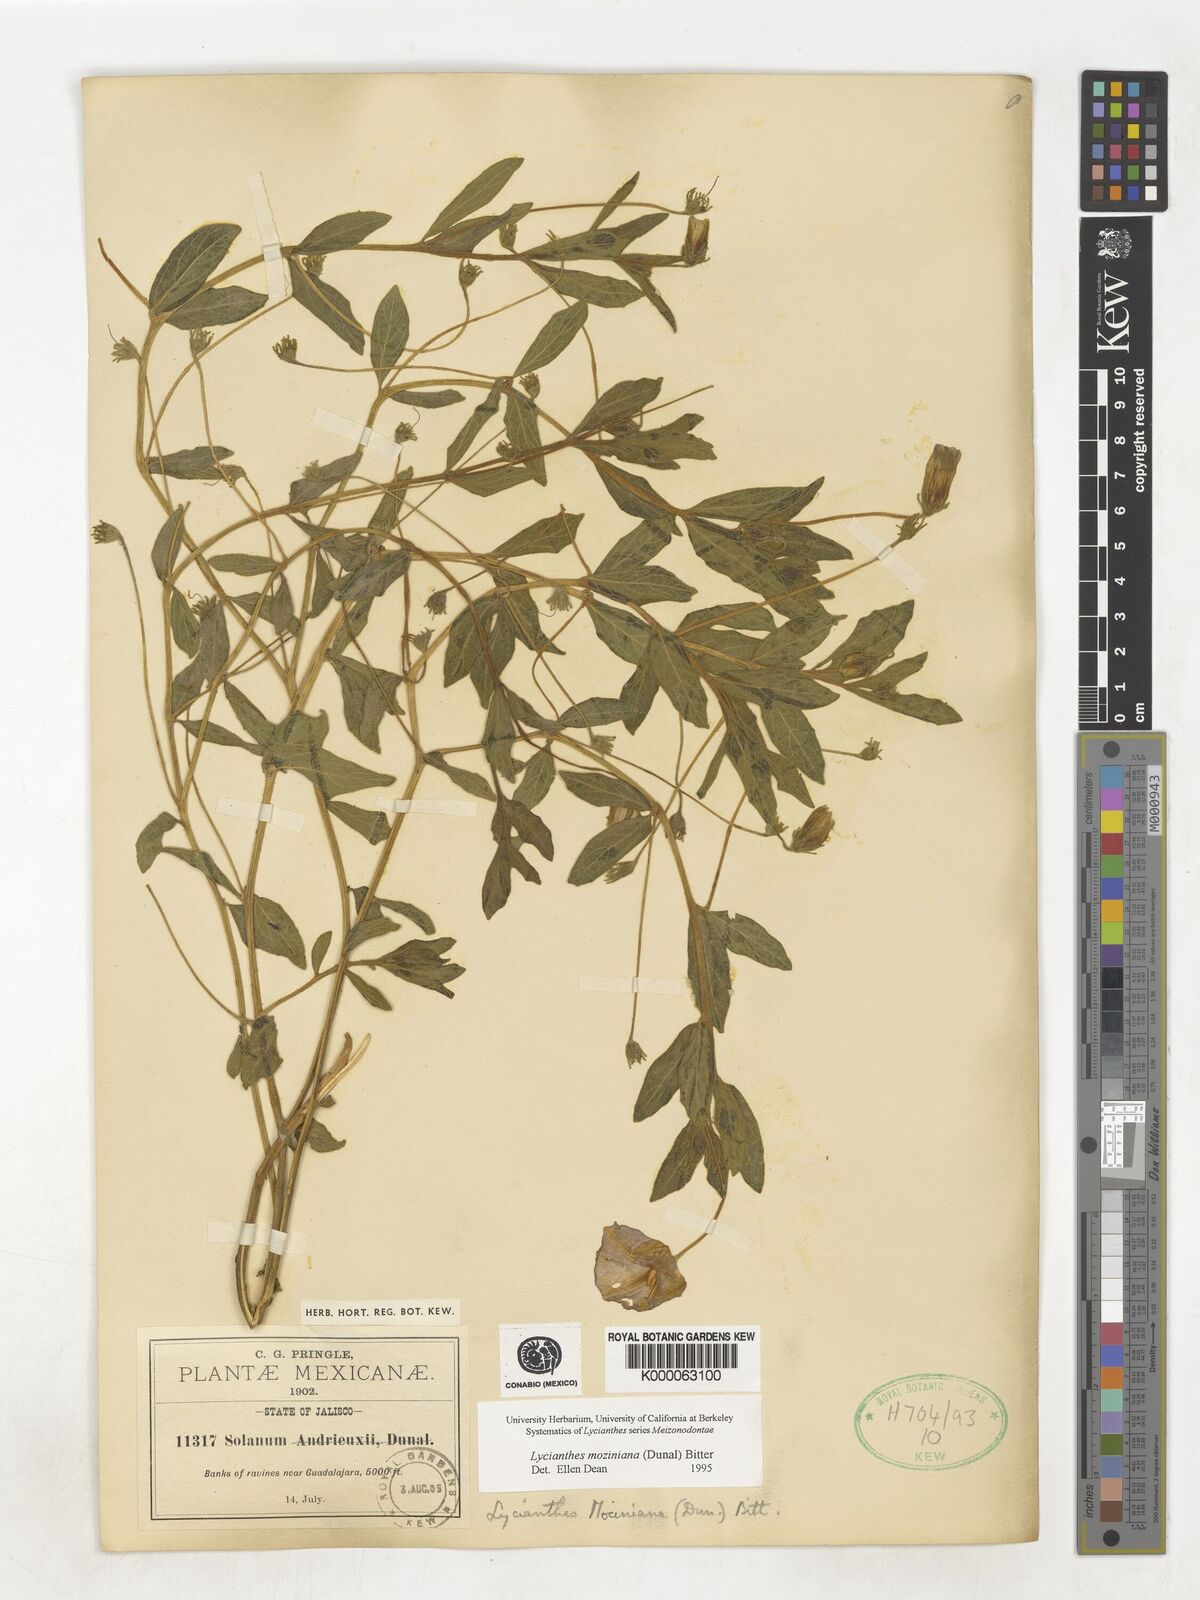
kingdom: Plantae
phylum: Tracheophyta
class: Magnoliopsida
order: Solanales
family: Solanaceae
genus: Lycianthes
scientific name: Lycianthes mozinoana
